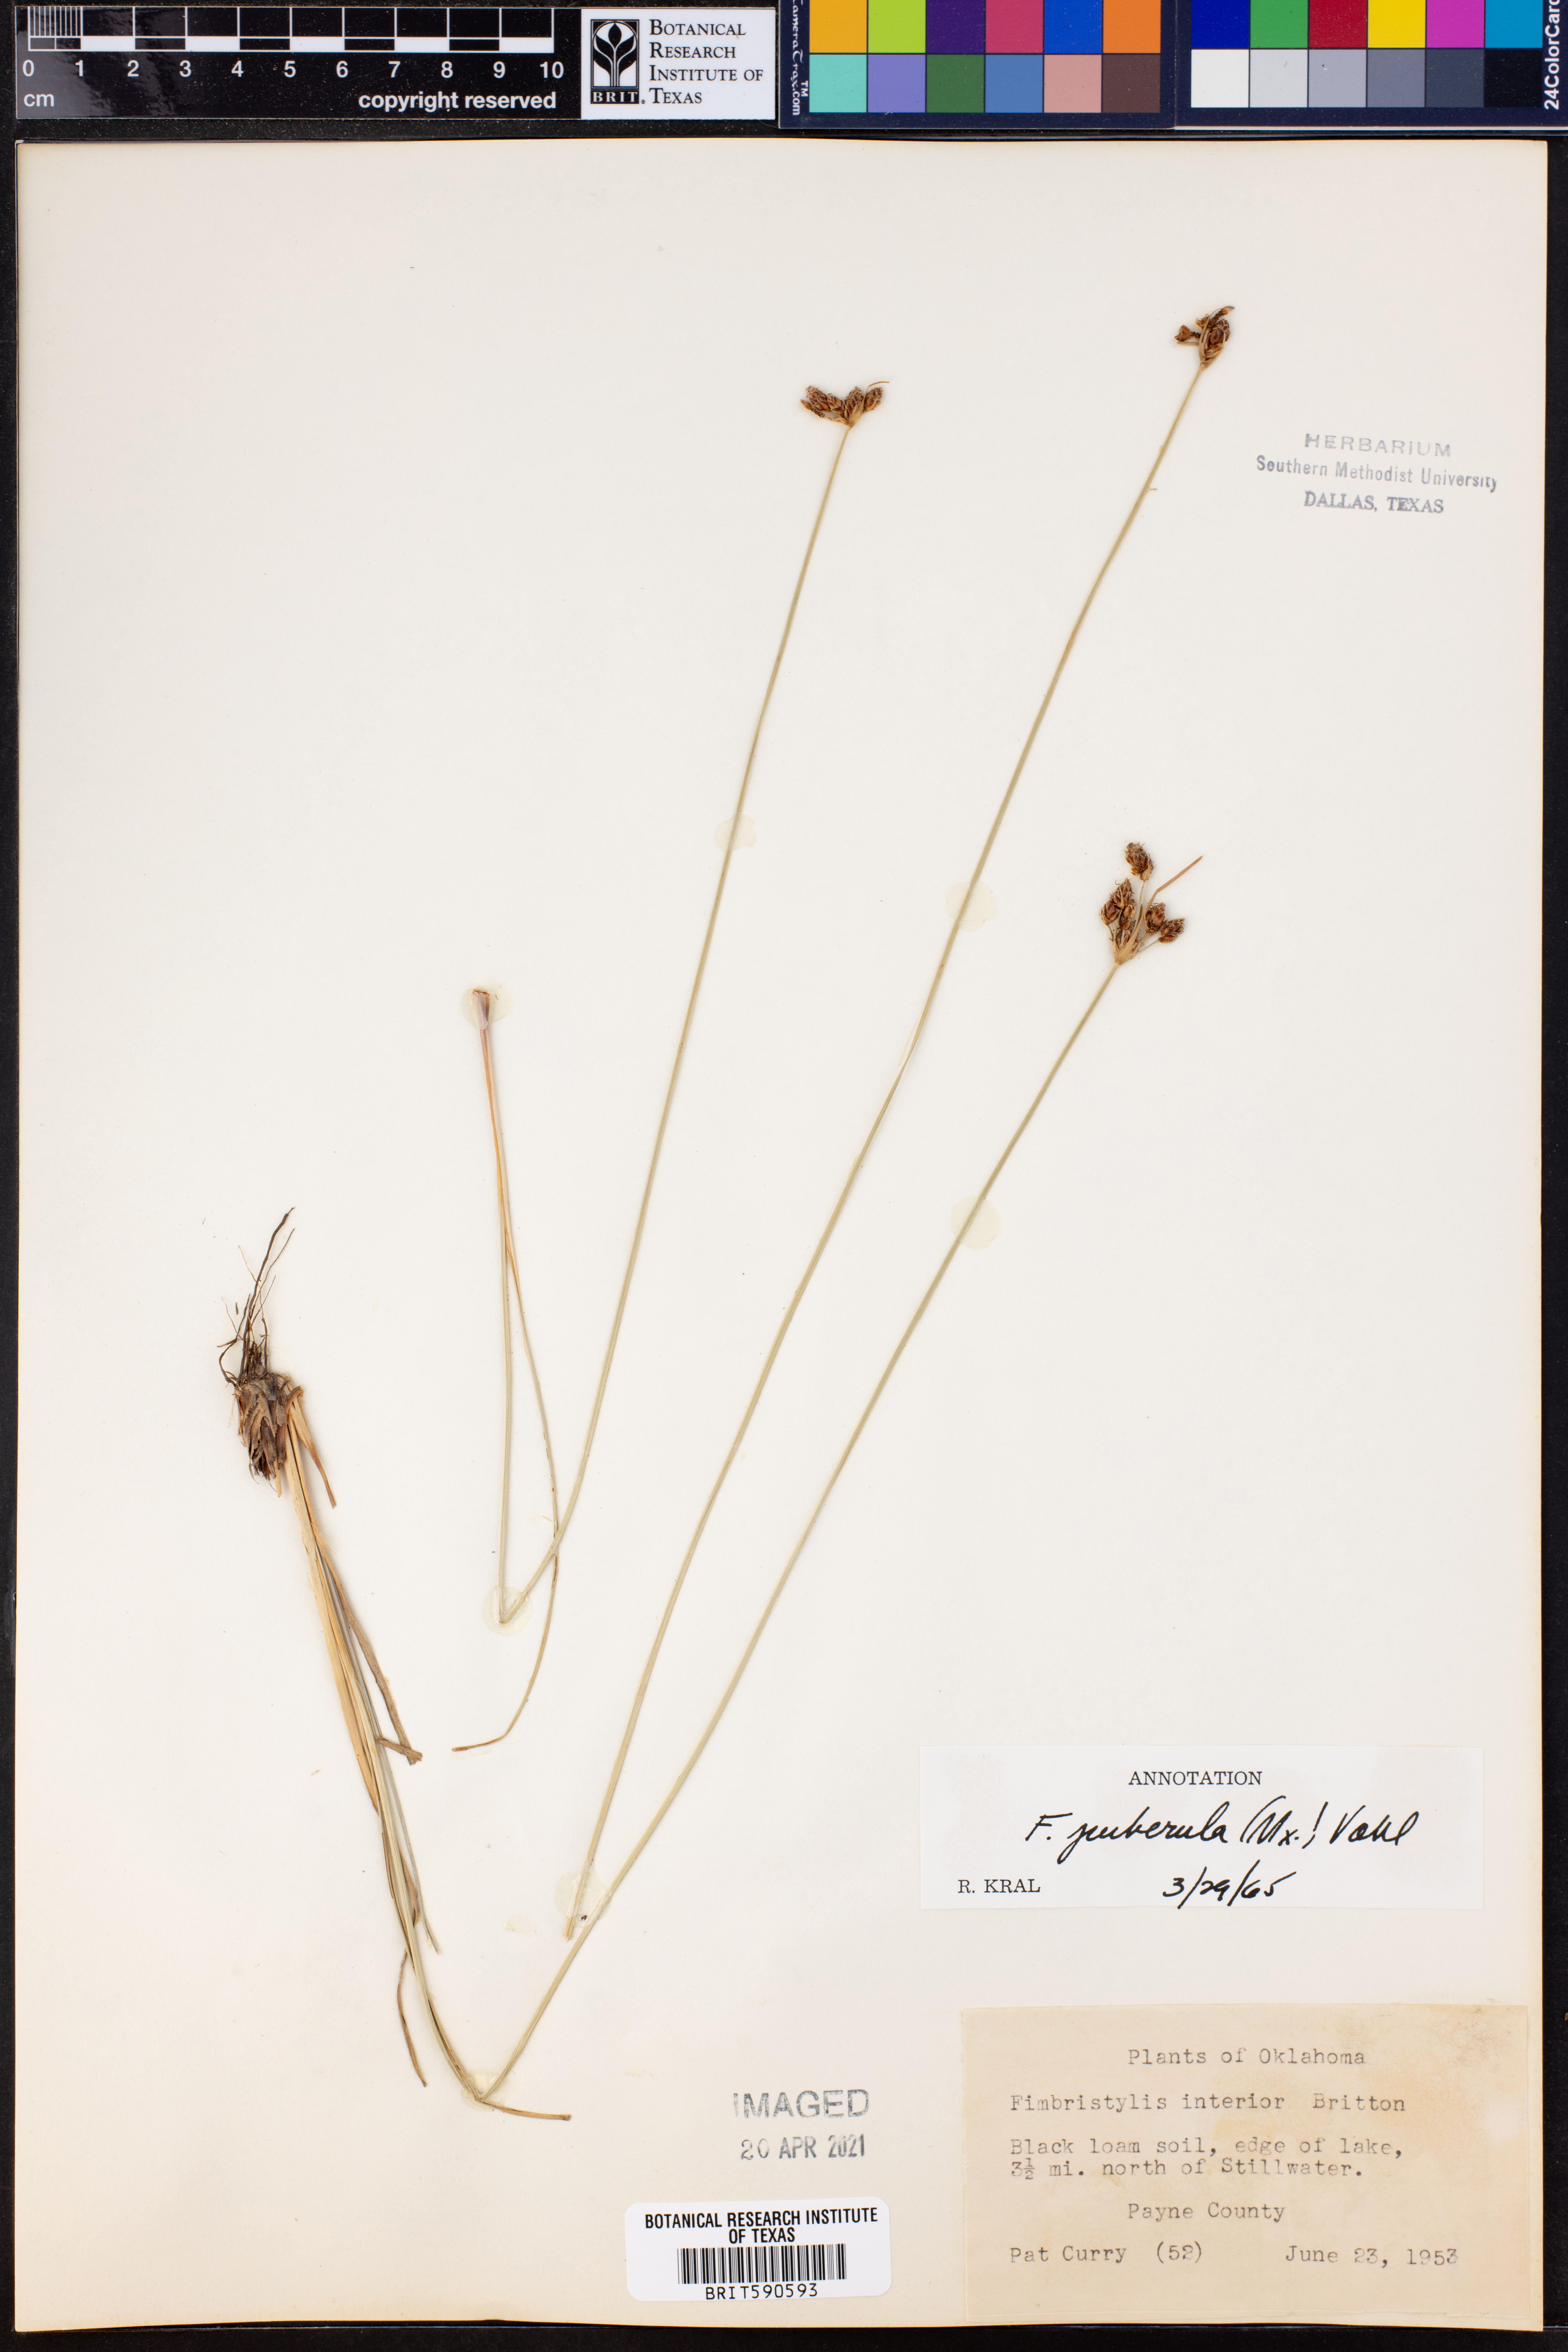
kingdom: Plantae
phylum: Tracheophyta
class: Liliopsida
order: Poales
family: Cyperaceae
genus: Fimbristylis
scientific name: Fimbristylis puberula
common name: Hairy fimbristylis
